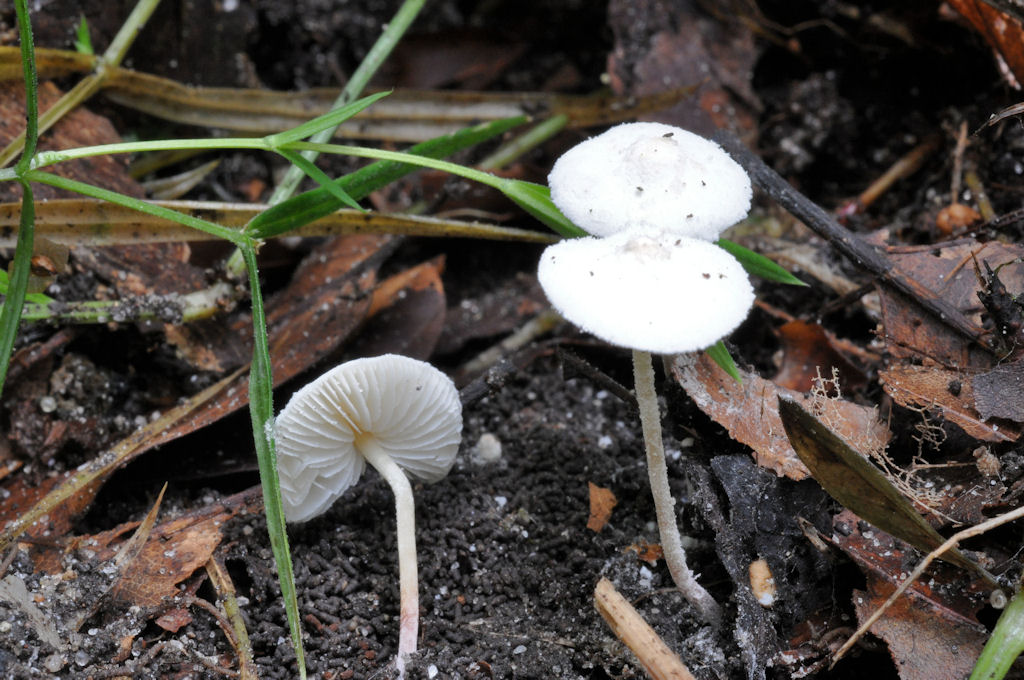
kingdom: Fungi
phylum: Basidiomycota
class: Agaricomycetes
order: Agaricales
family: Agaricaceae
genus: Cystolepiota
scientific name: Cystolepiota seminuda
